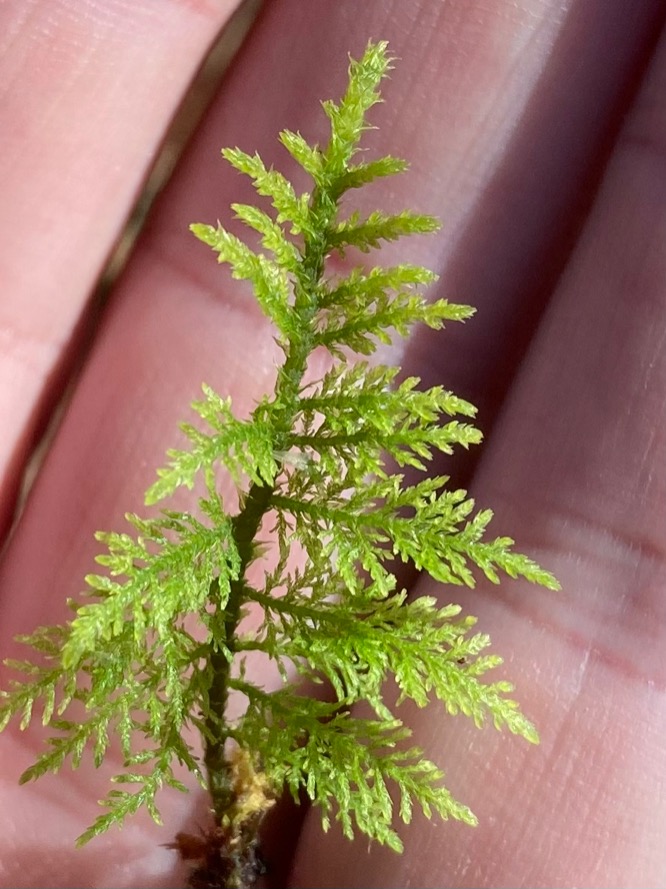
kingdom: Plantae
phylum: Bryophyta
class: Bryopsida
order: Hypnales
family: Thuidiaceae
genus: Thuidium
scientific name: Thuidium tamariscinum
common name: Pryd-bregnemos
